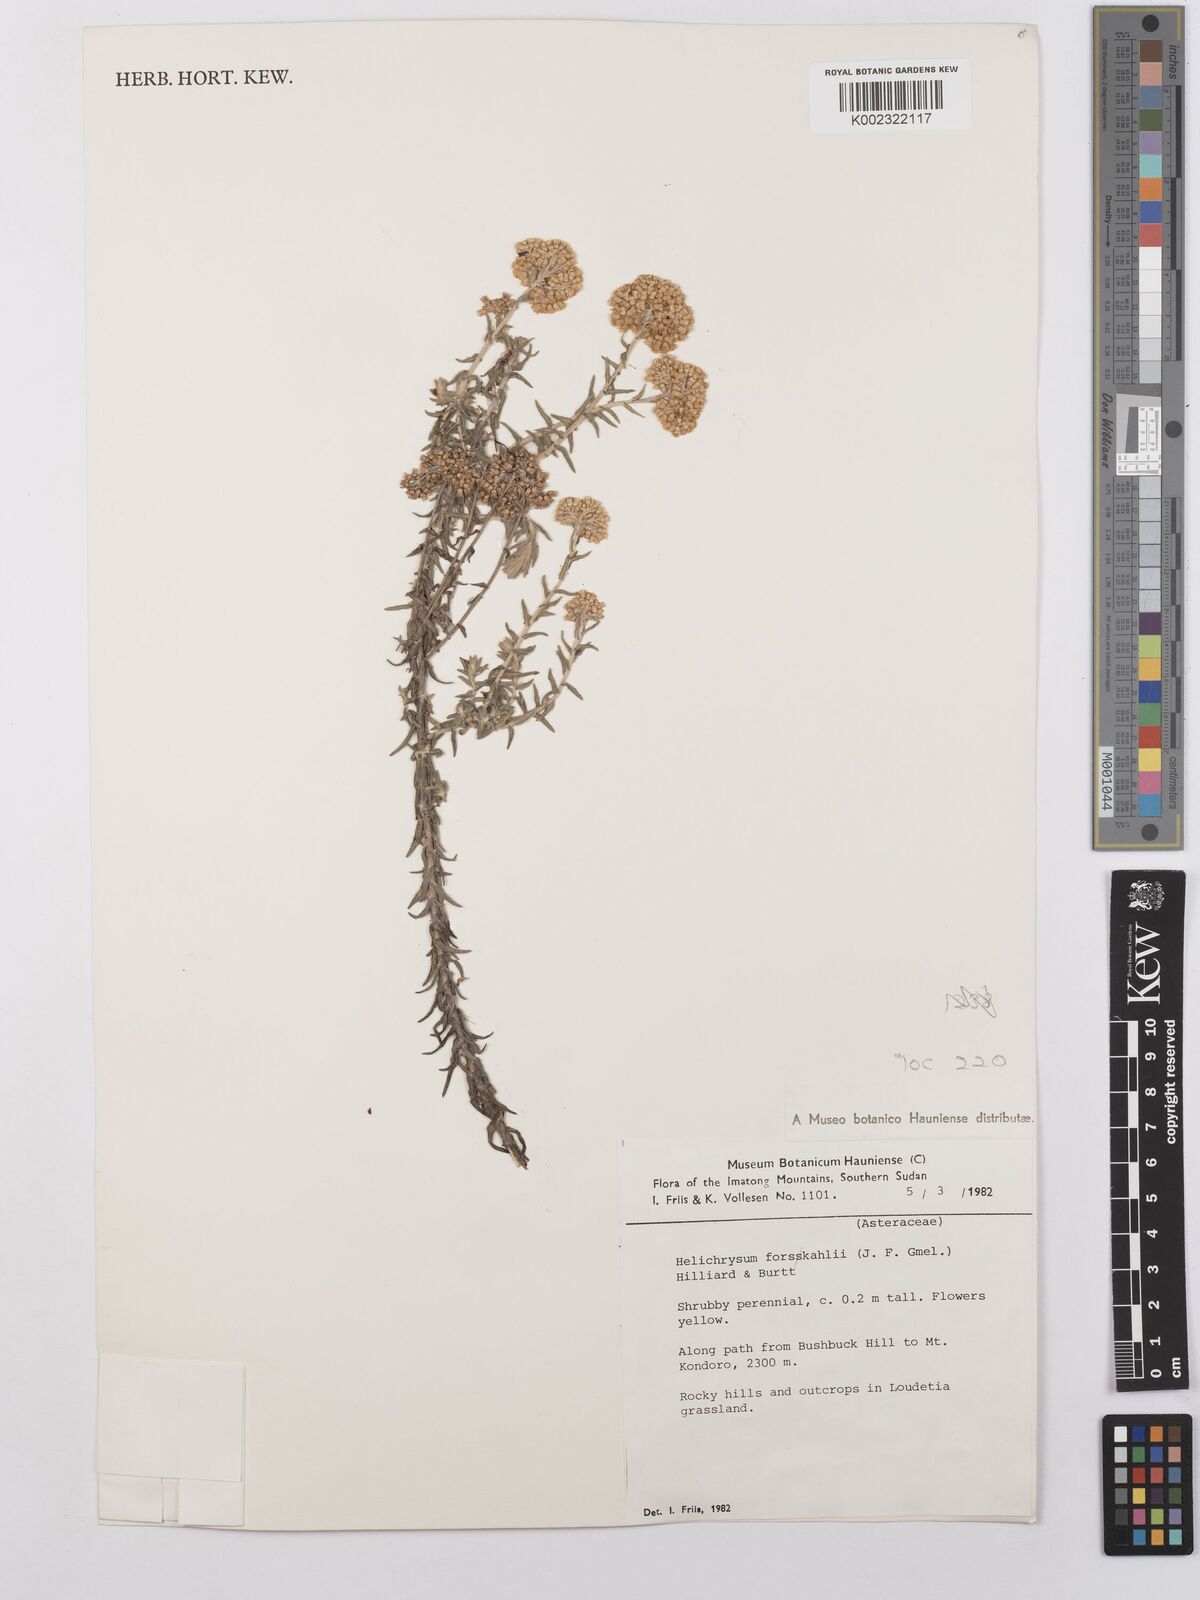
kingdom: Plantae
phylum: Tracheophyta
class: Magnoliopsida
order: Asterales
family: Asteraceae
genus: Helichrysum
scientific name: Helichrysum forskahlii
